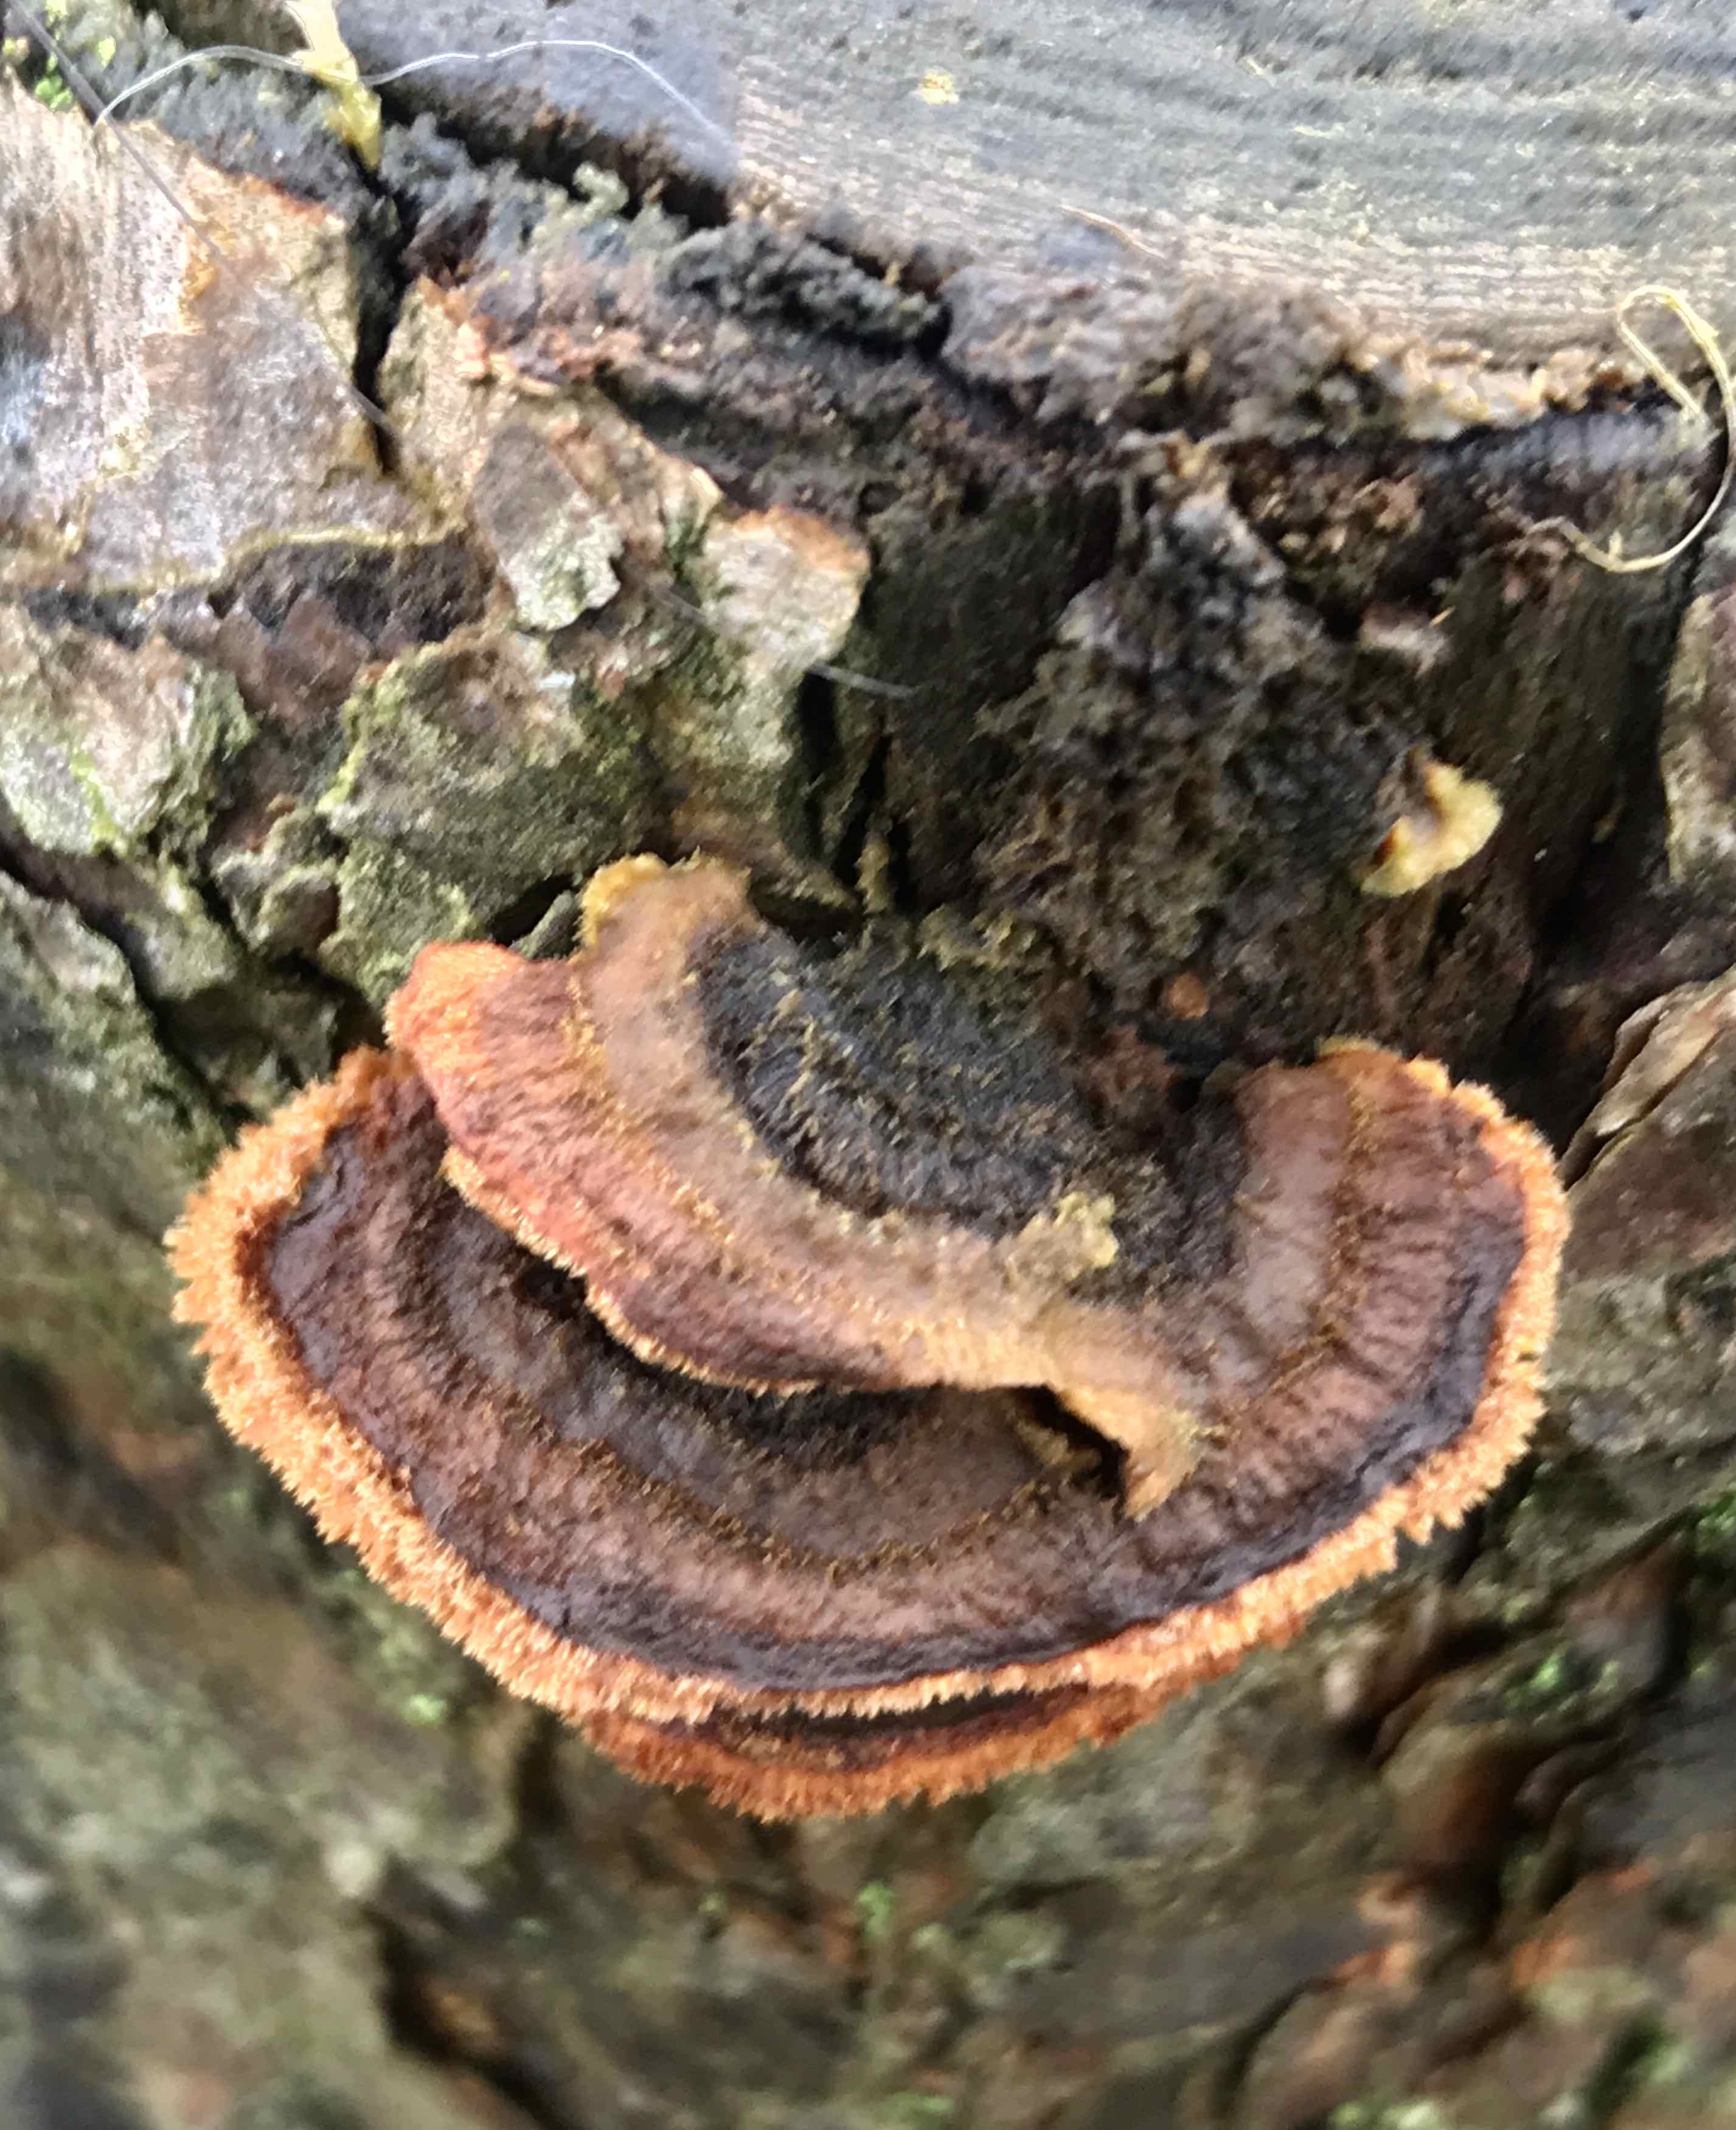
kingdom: Fungi
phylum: Basidiomycota
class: Agaricomycetes
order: Gloeophyllales
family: Gloeophyllaceae
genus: Gloeophyllum
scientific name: Gloeophyllum sepiarium
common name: fyrre-korkhat
